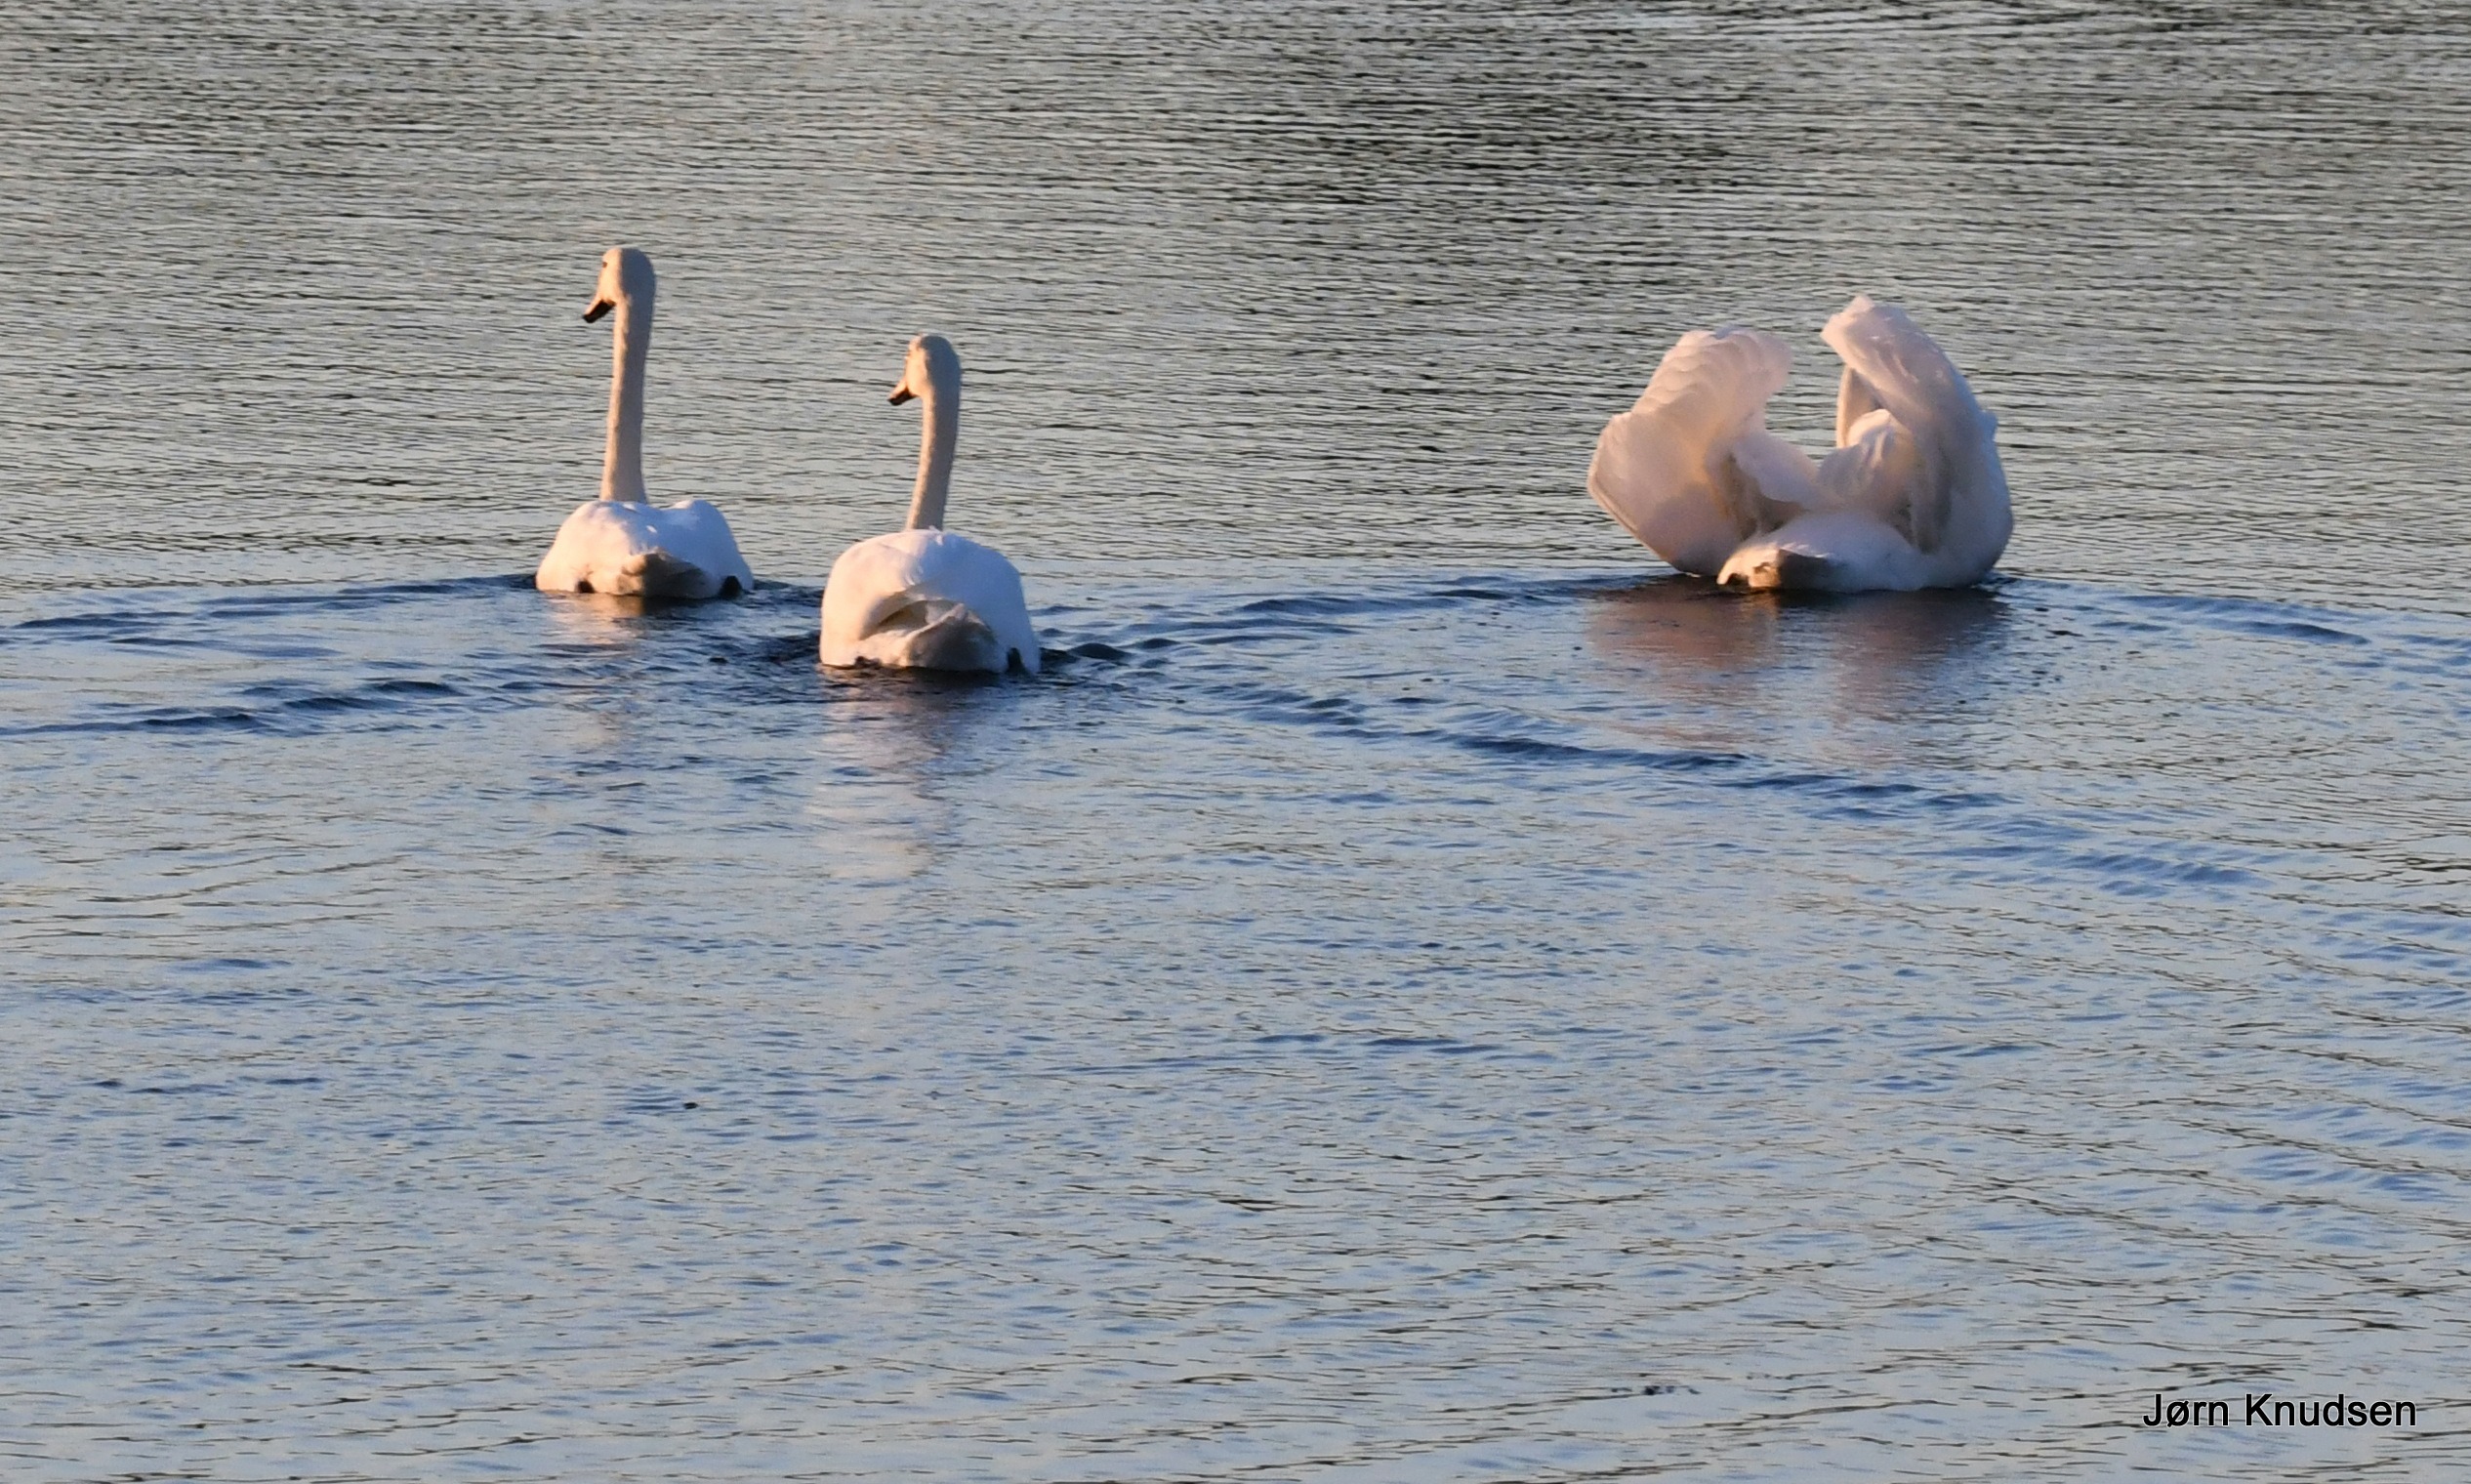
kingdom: Animalia
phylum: Chordata
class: Aves
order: Anseriformes
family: Anatidae
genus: Cygnus
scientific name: Cygnus olor
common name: Knopsvane
